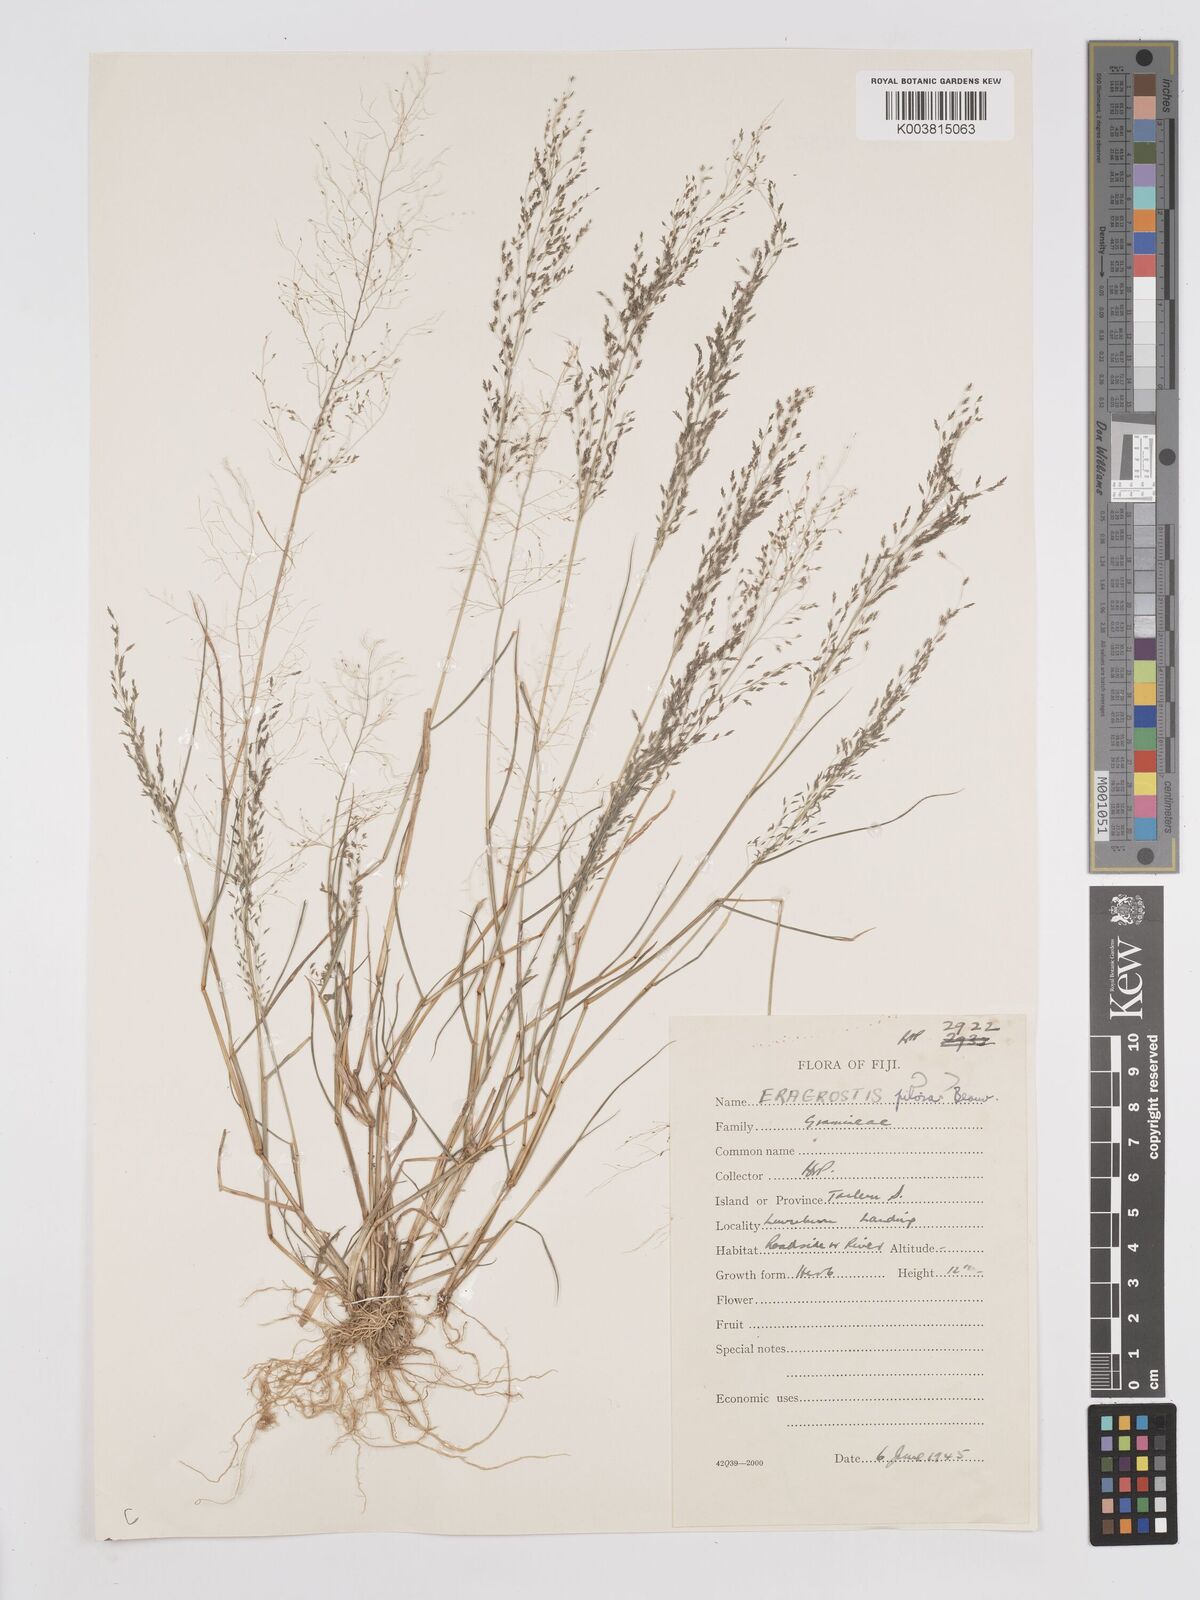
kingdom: Plantae
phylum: Tracheophyta
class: Liliopsida
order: Poales
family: Poaceae
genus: Eragrostis
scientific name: Eragrostis pilosa
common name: Indian lovegrass
